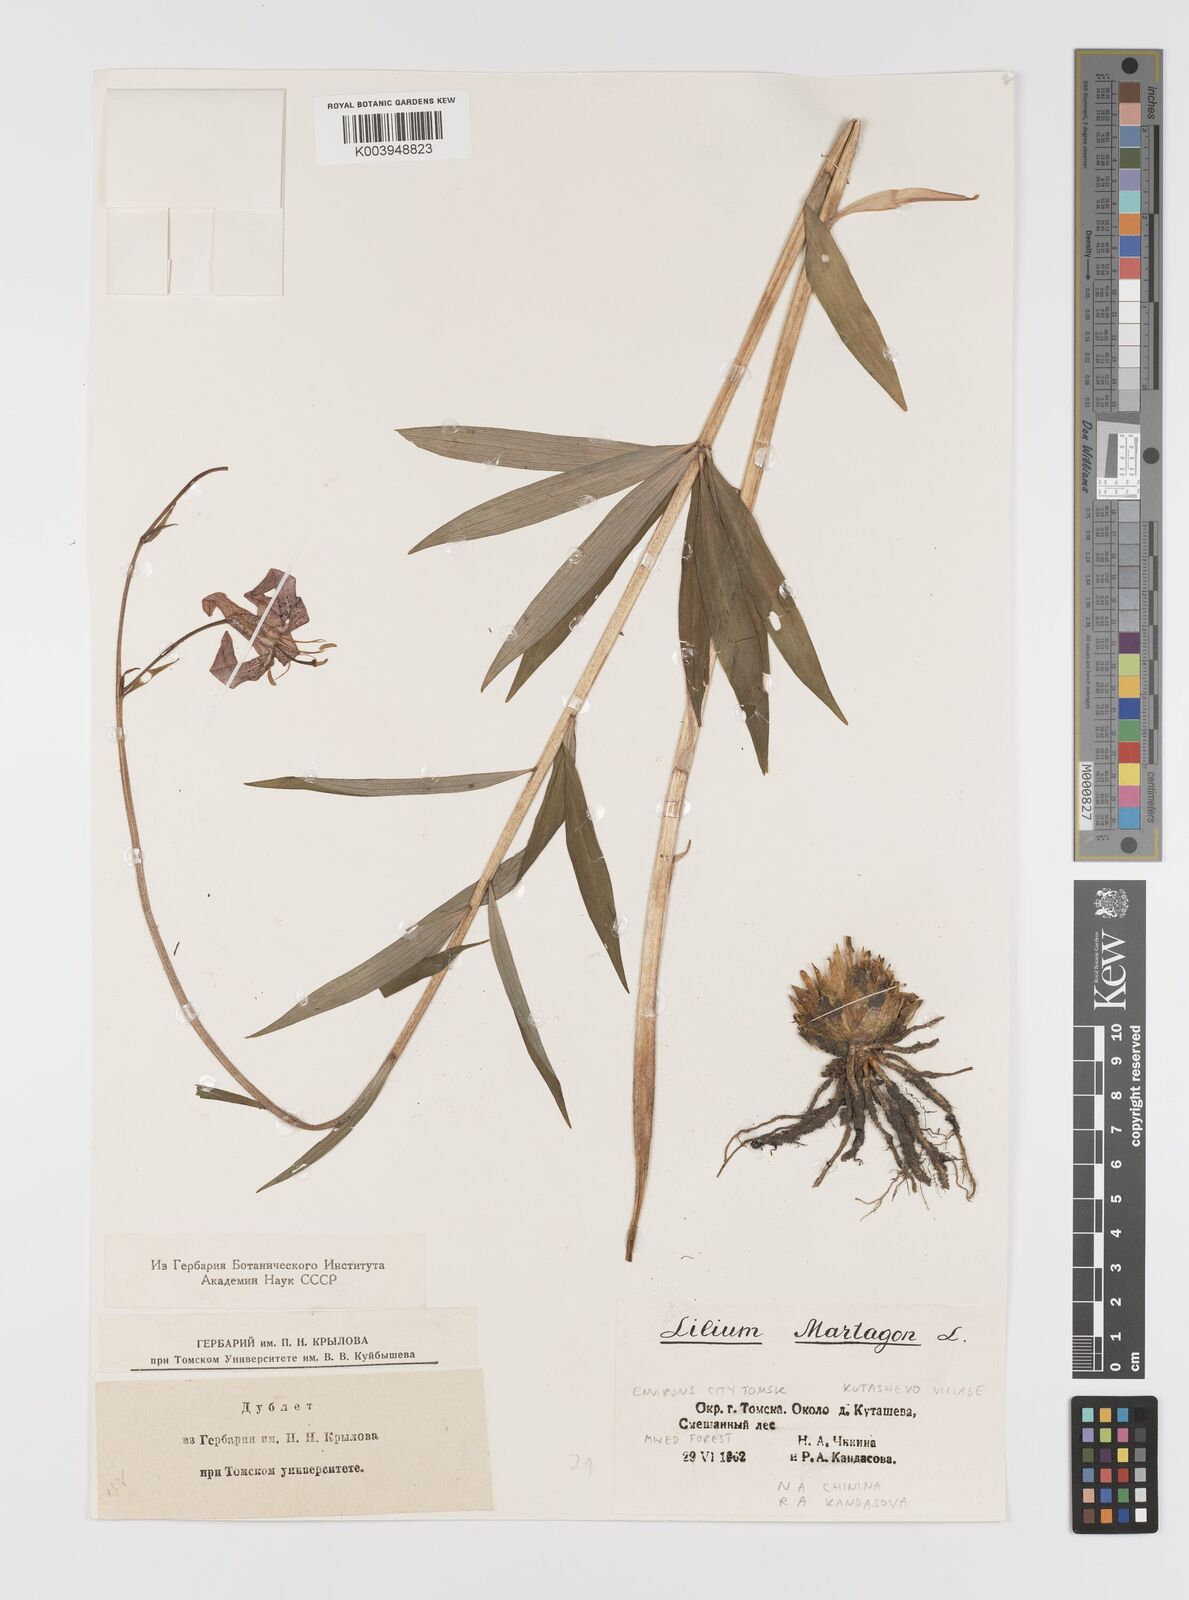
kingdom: Plantae
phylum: Tracheophyta
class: Liliopsida
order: Liliales
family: Liliaceae
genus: Lilium
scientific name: Lilium martagon
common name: Martagon lily
